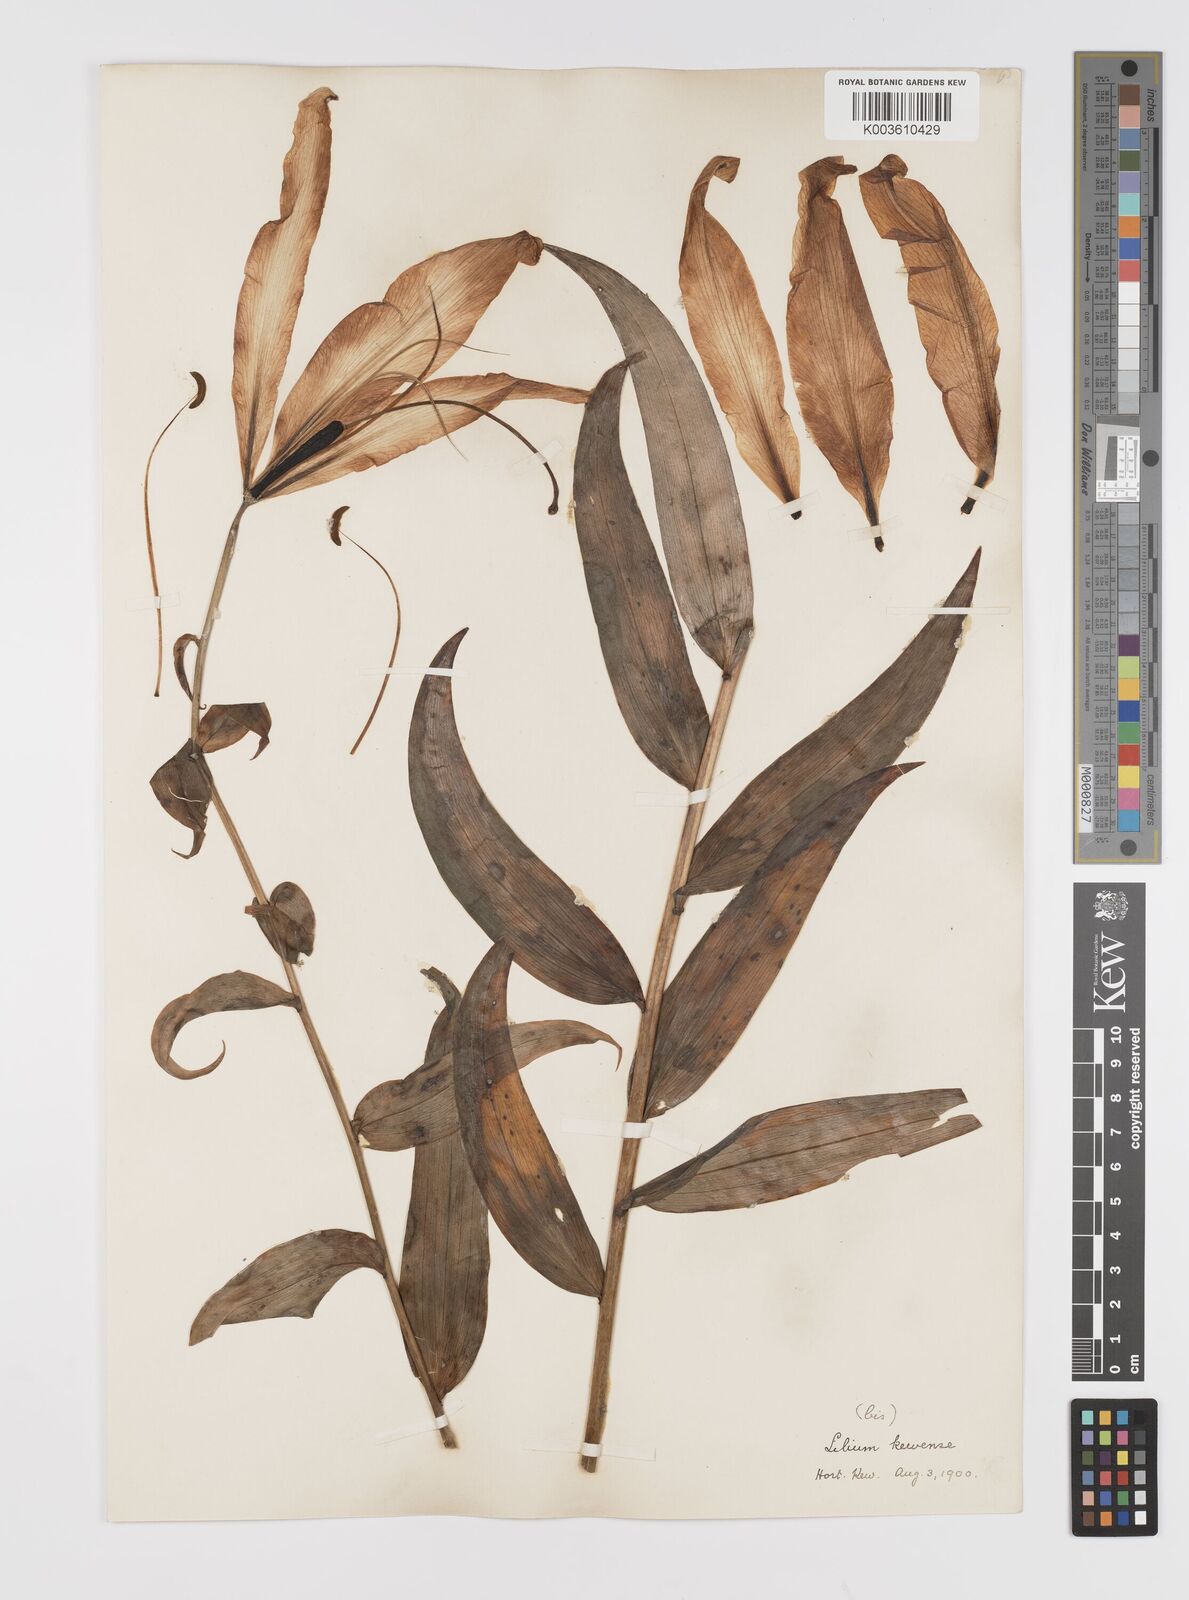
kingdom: Plantae
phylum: Tracheophyta
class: Liliopsida
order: Liliales
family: Liliaceae
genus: Lilium
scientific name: Lilium leucanthum
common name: Chinese white lily
